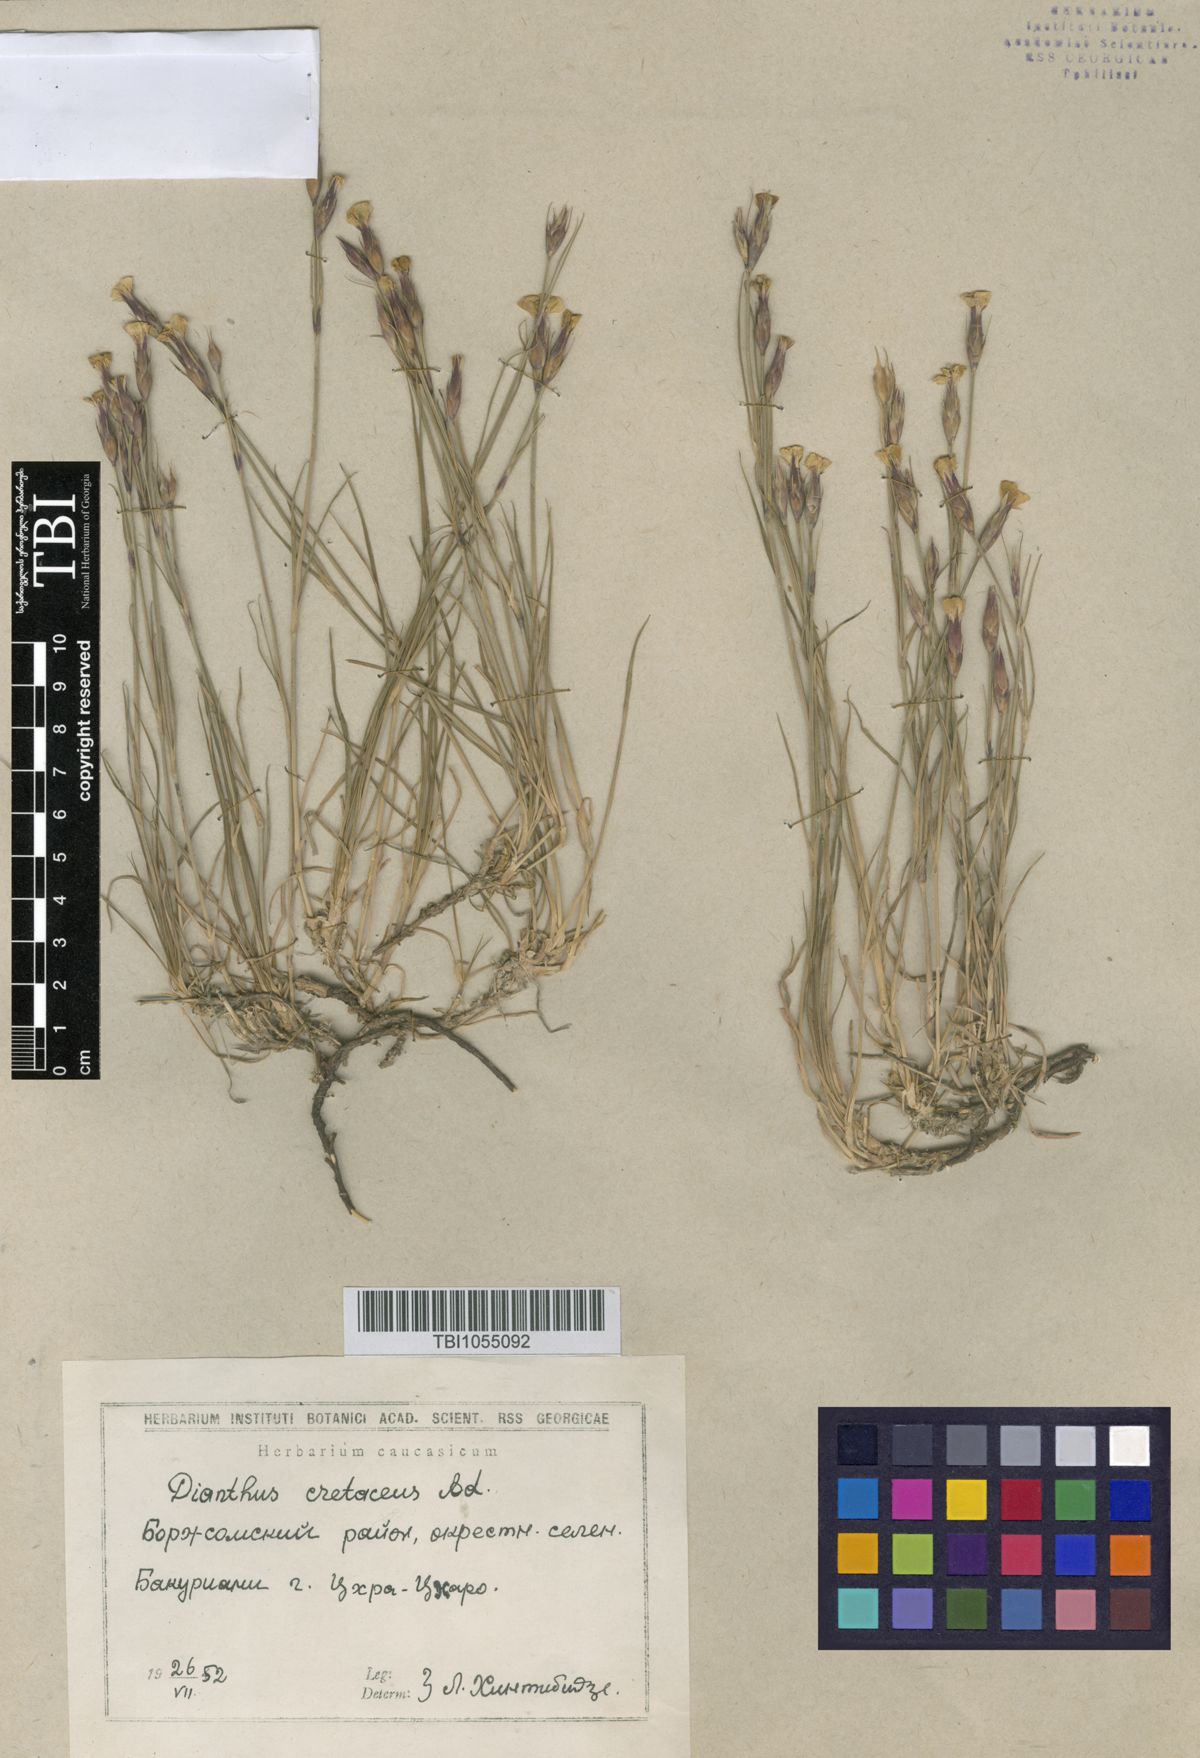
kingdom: Plantae
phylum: Tracheophyta
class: Magnoliopsida
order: Caryophyllales
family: Caryophyllaceae
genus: Dianthus
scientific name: Dianthus cretaceus
